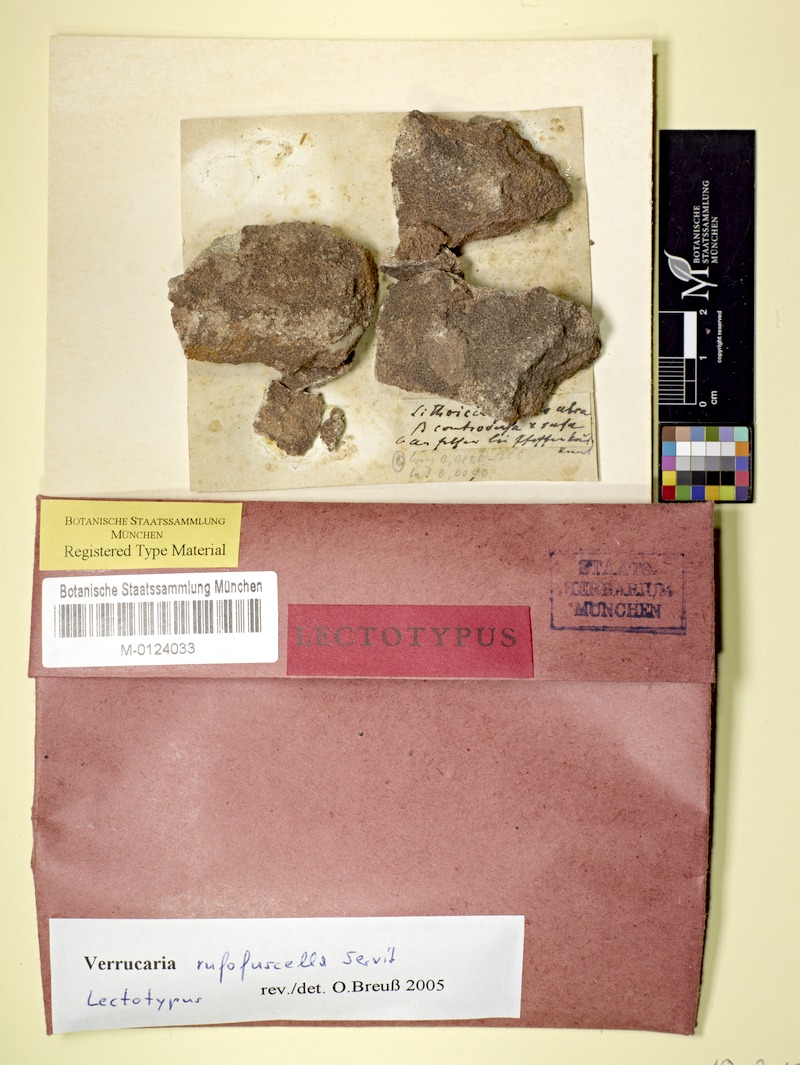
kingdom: Fungi
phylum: Ascomycota
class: Eurotiomycetes
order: Verrucariales
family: Verrucariaceae
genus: Verrucaria
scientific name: Verrucaria rufofuscella
